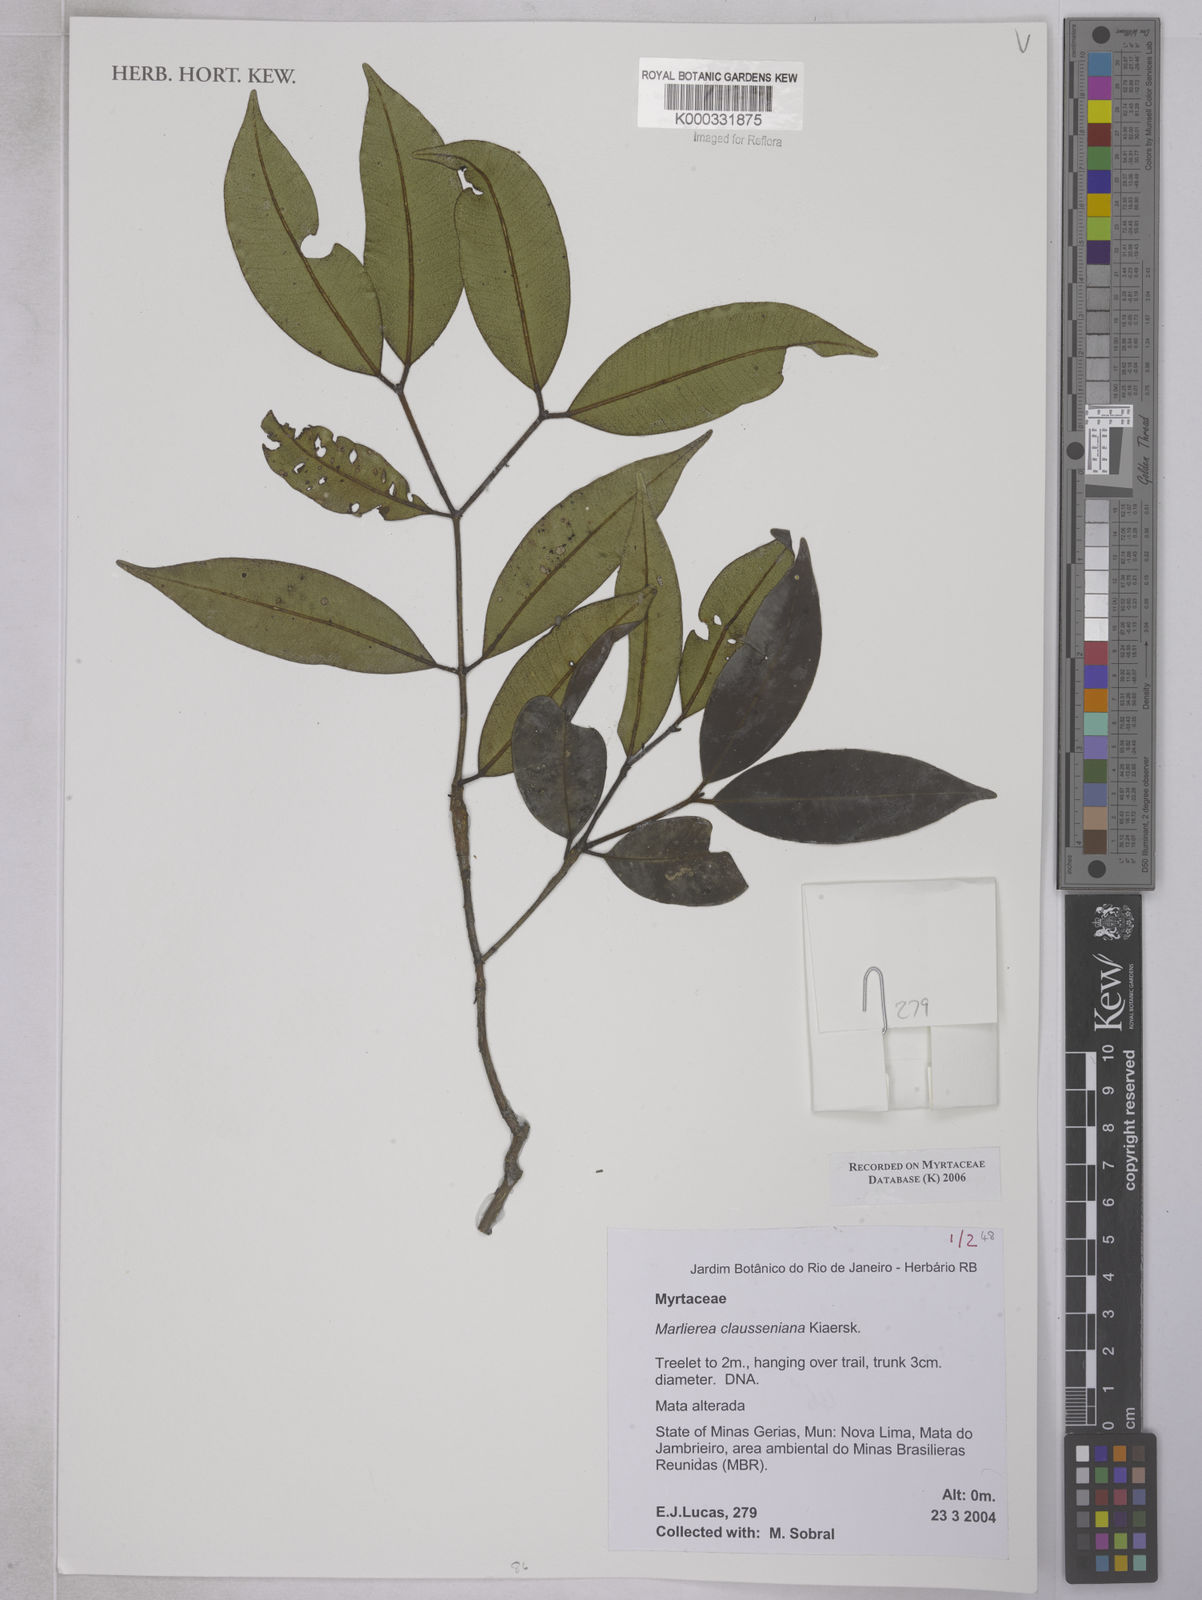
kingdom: Plantae
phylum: Tracheophyta
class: Magnoliopsida
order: Myrtales
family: Myrtaceae
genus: Marlierea
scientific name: Marlierea clausseniana
